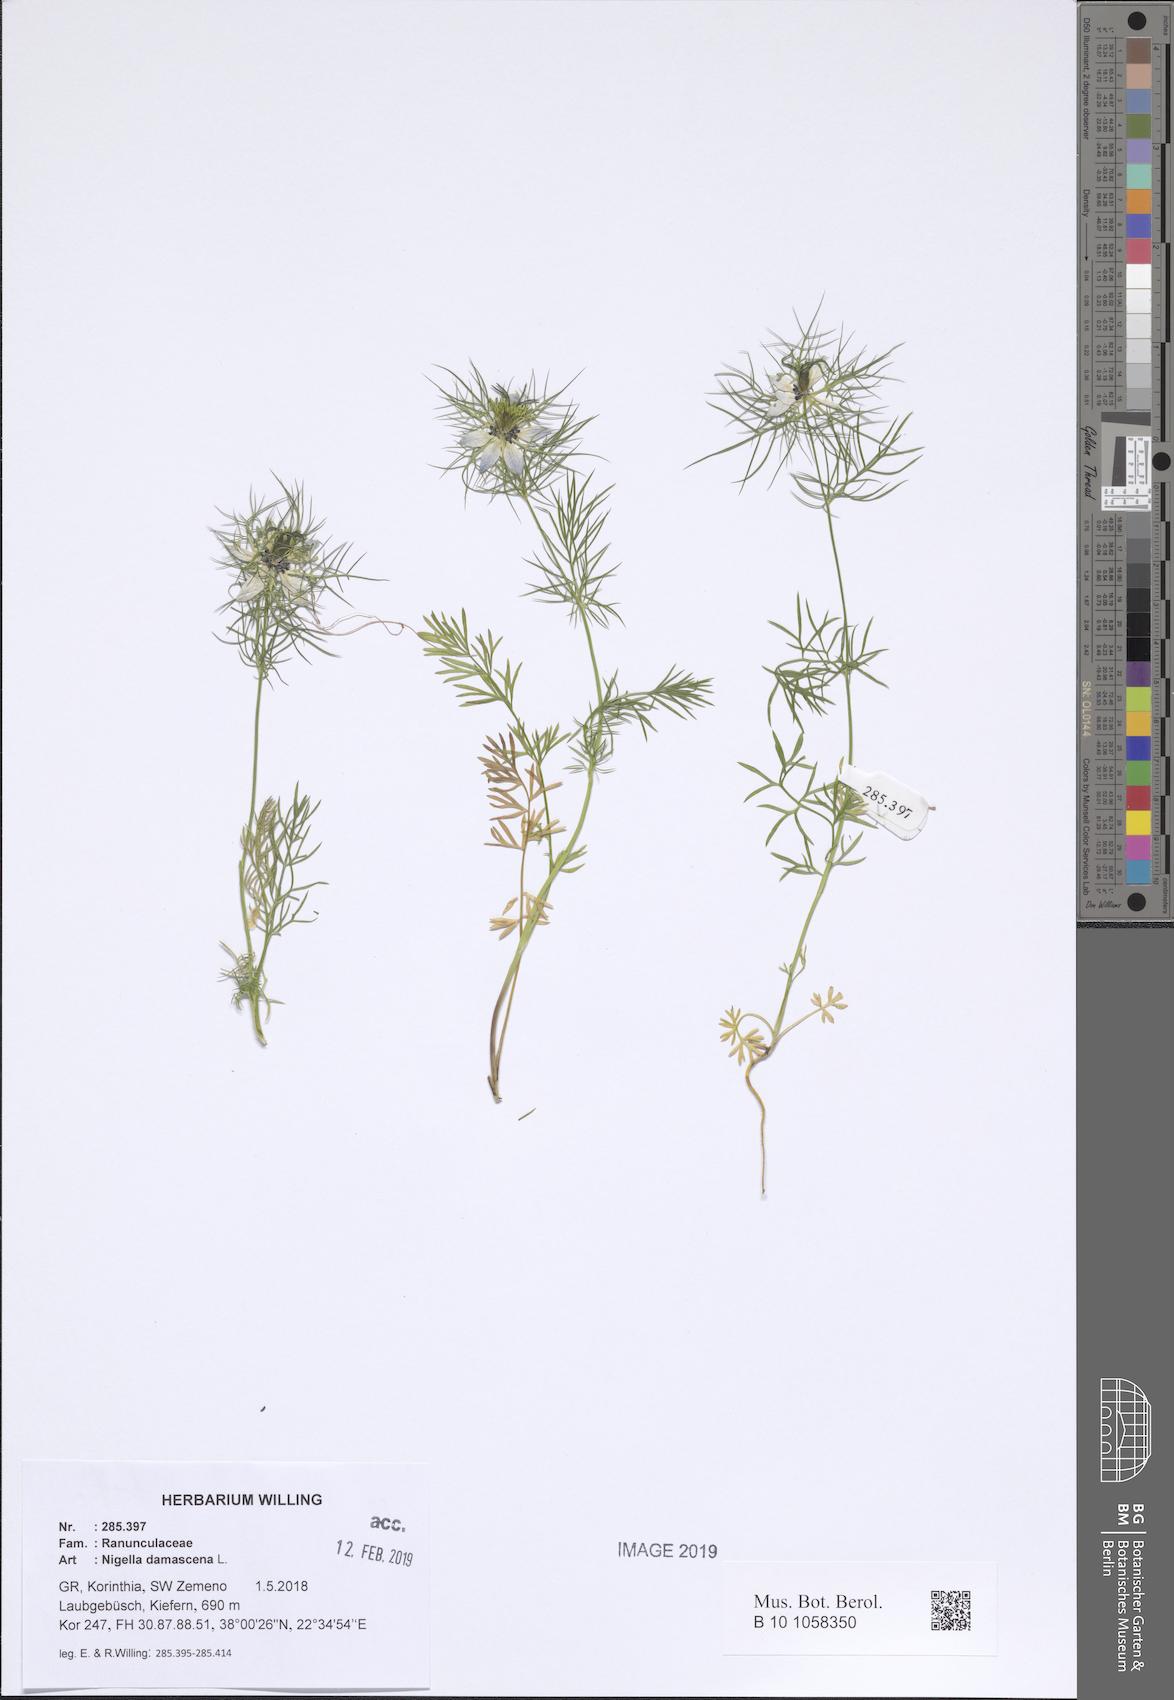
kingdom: Plantae
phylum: Tracheophyta
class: Magnoliopsida
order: Ranunculales
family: Ranunculaceae
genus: Nigella
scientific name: Nigella damascena
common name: Love-in-a-mist
